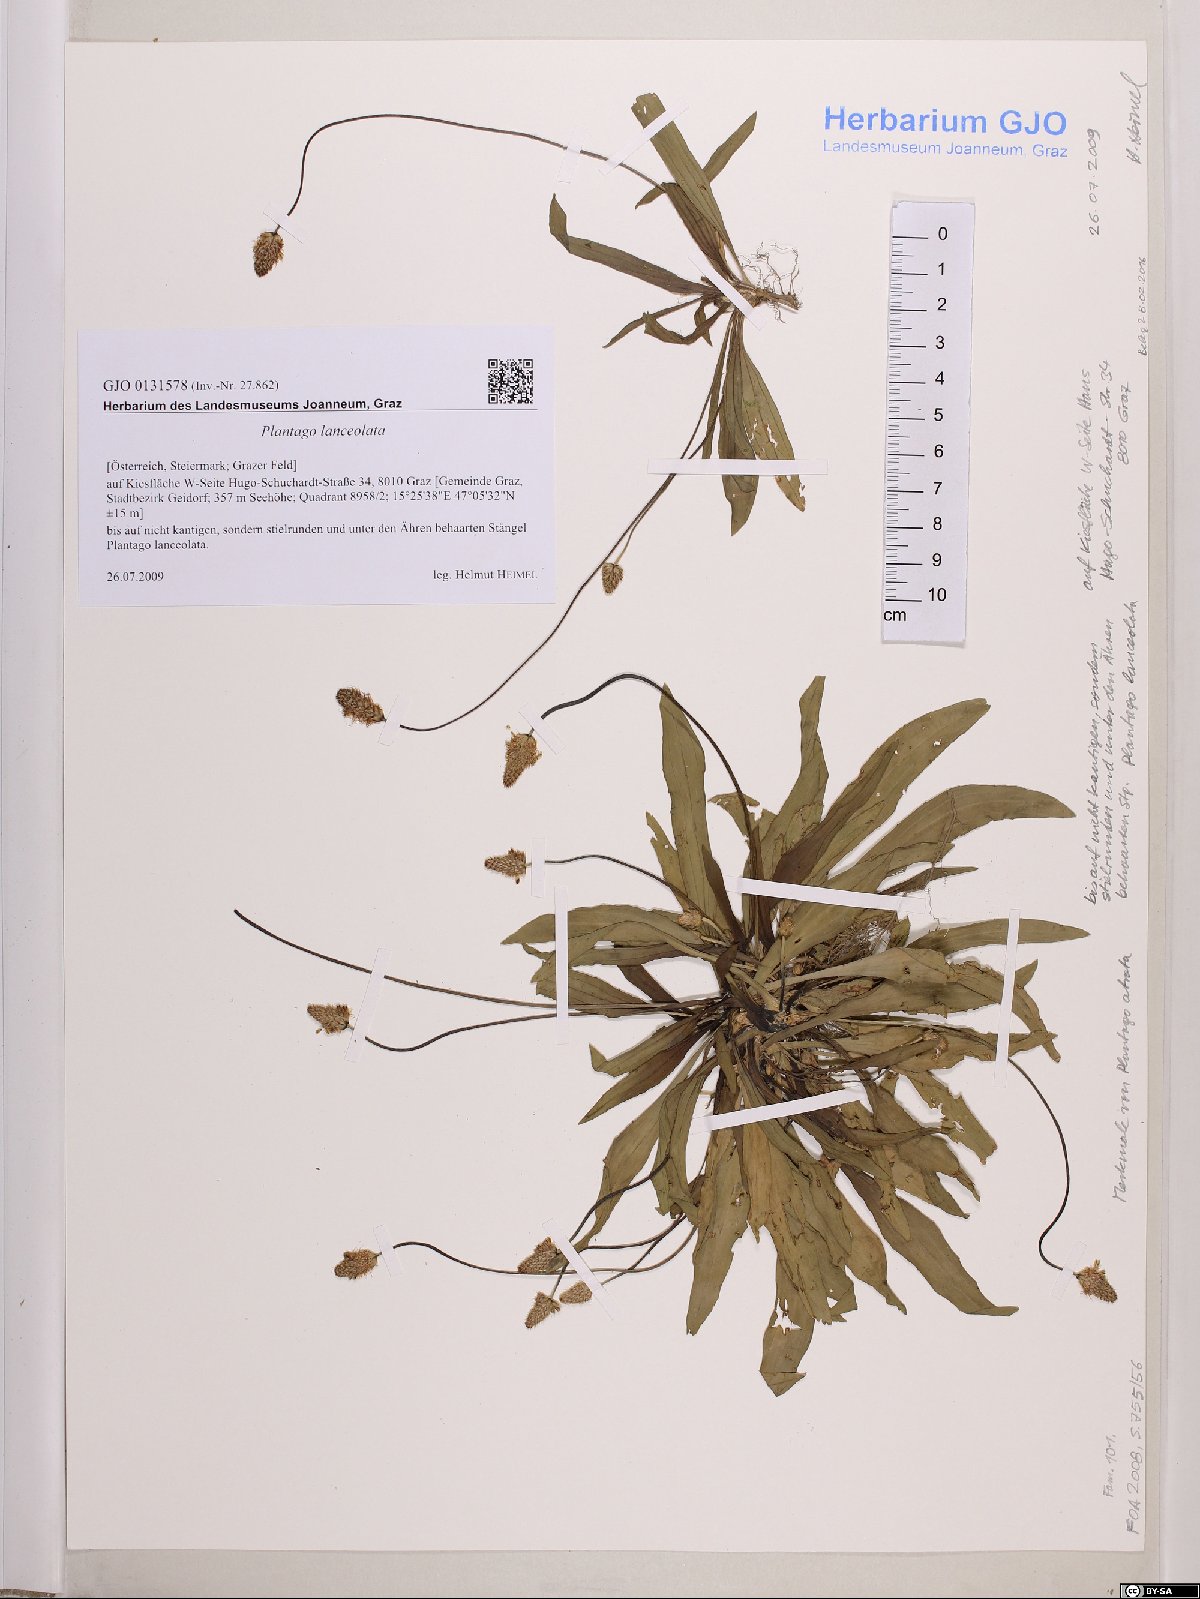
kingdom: Plantae
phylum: Tracheophyta
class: Magnoliopsida
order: Lamiales
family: Plantaginaceae
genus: Plantago
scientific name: Plantago lanceolata
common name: Ribwort plantain
